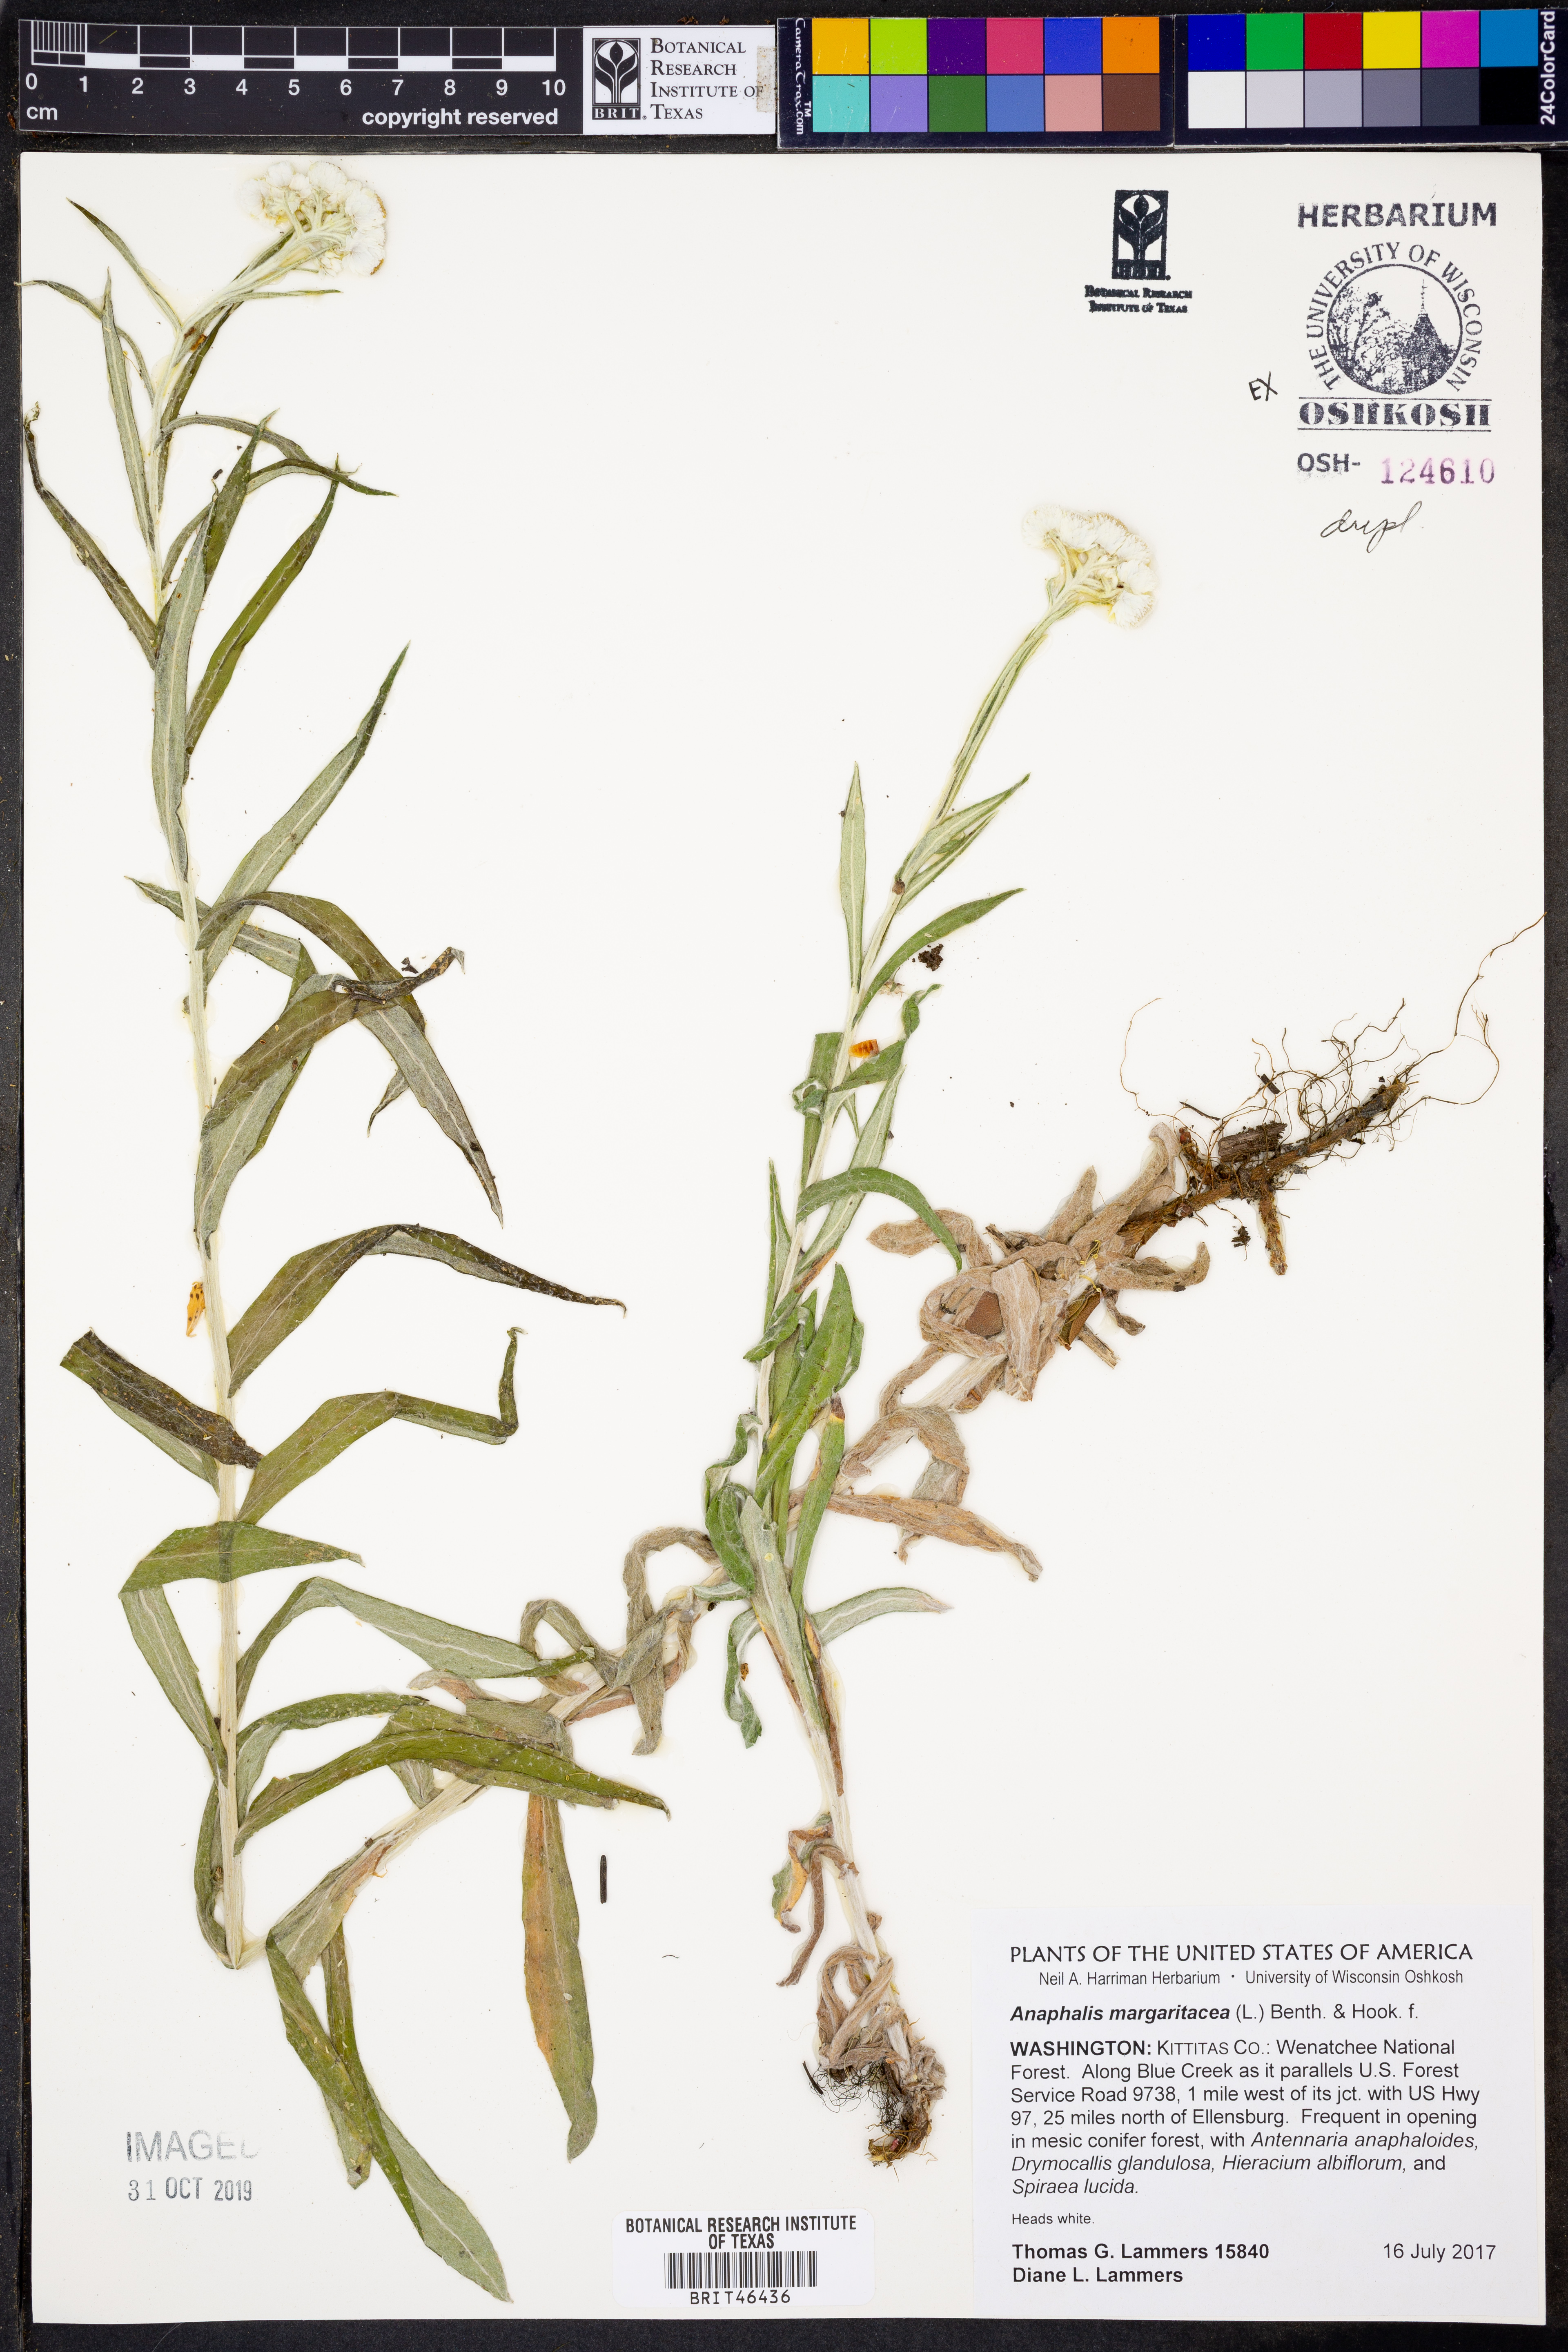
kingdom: Plantae
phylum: Tracheophyta
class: Magnoliopsida
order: Asterales
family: Asteraceae
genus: Anaphalis
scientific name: Anaphalis margaritacea
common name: Pearly everlasting
